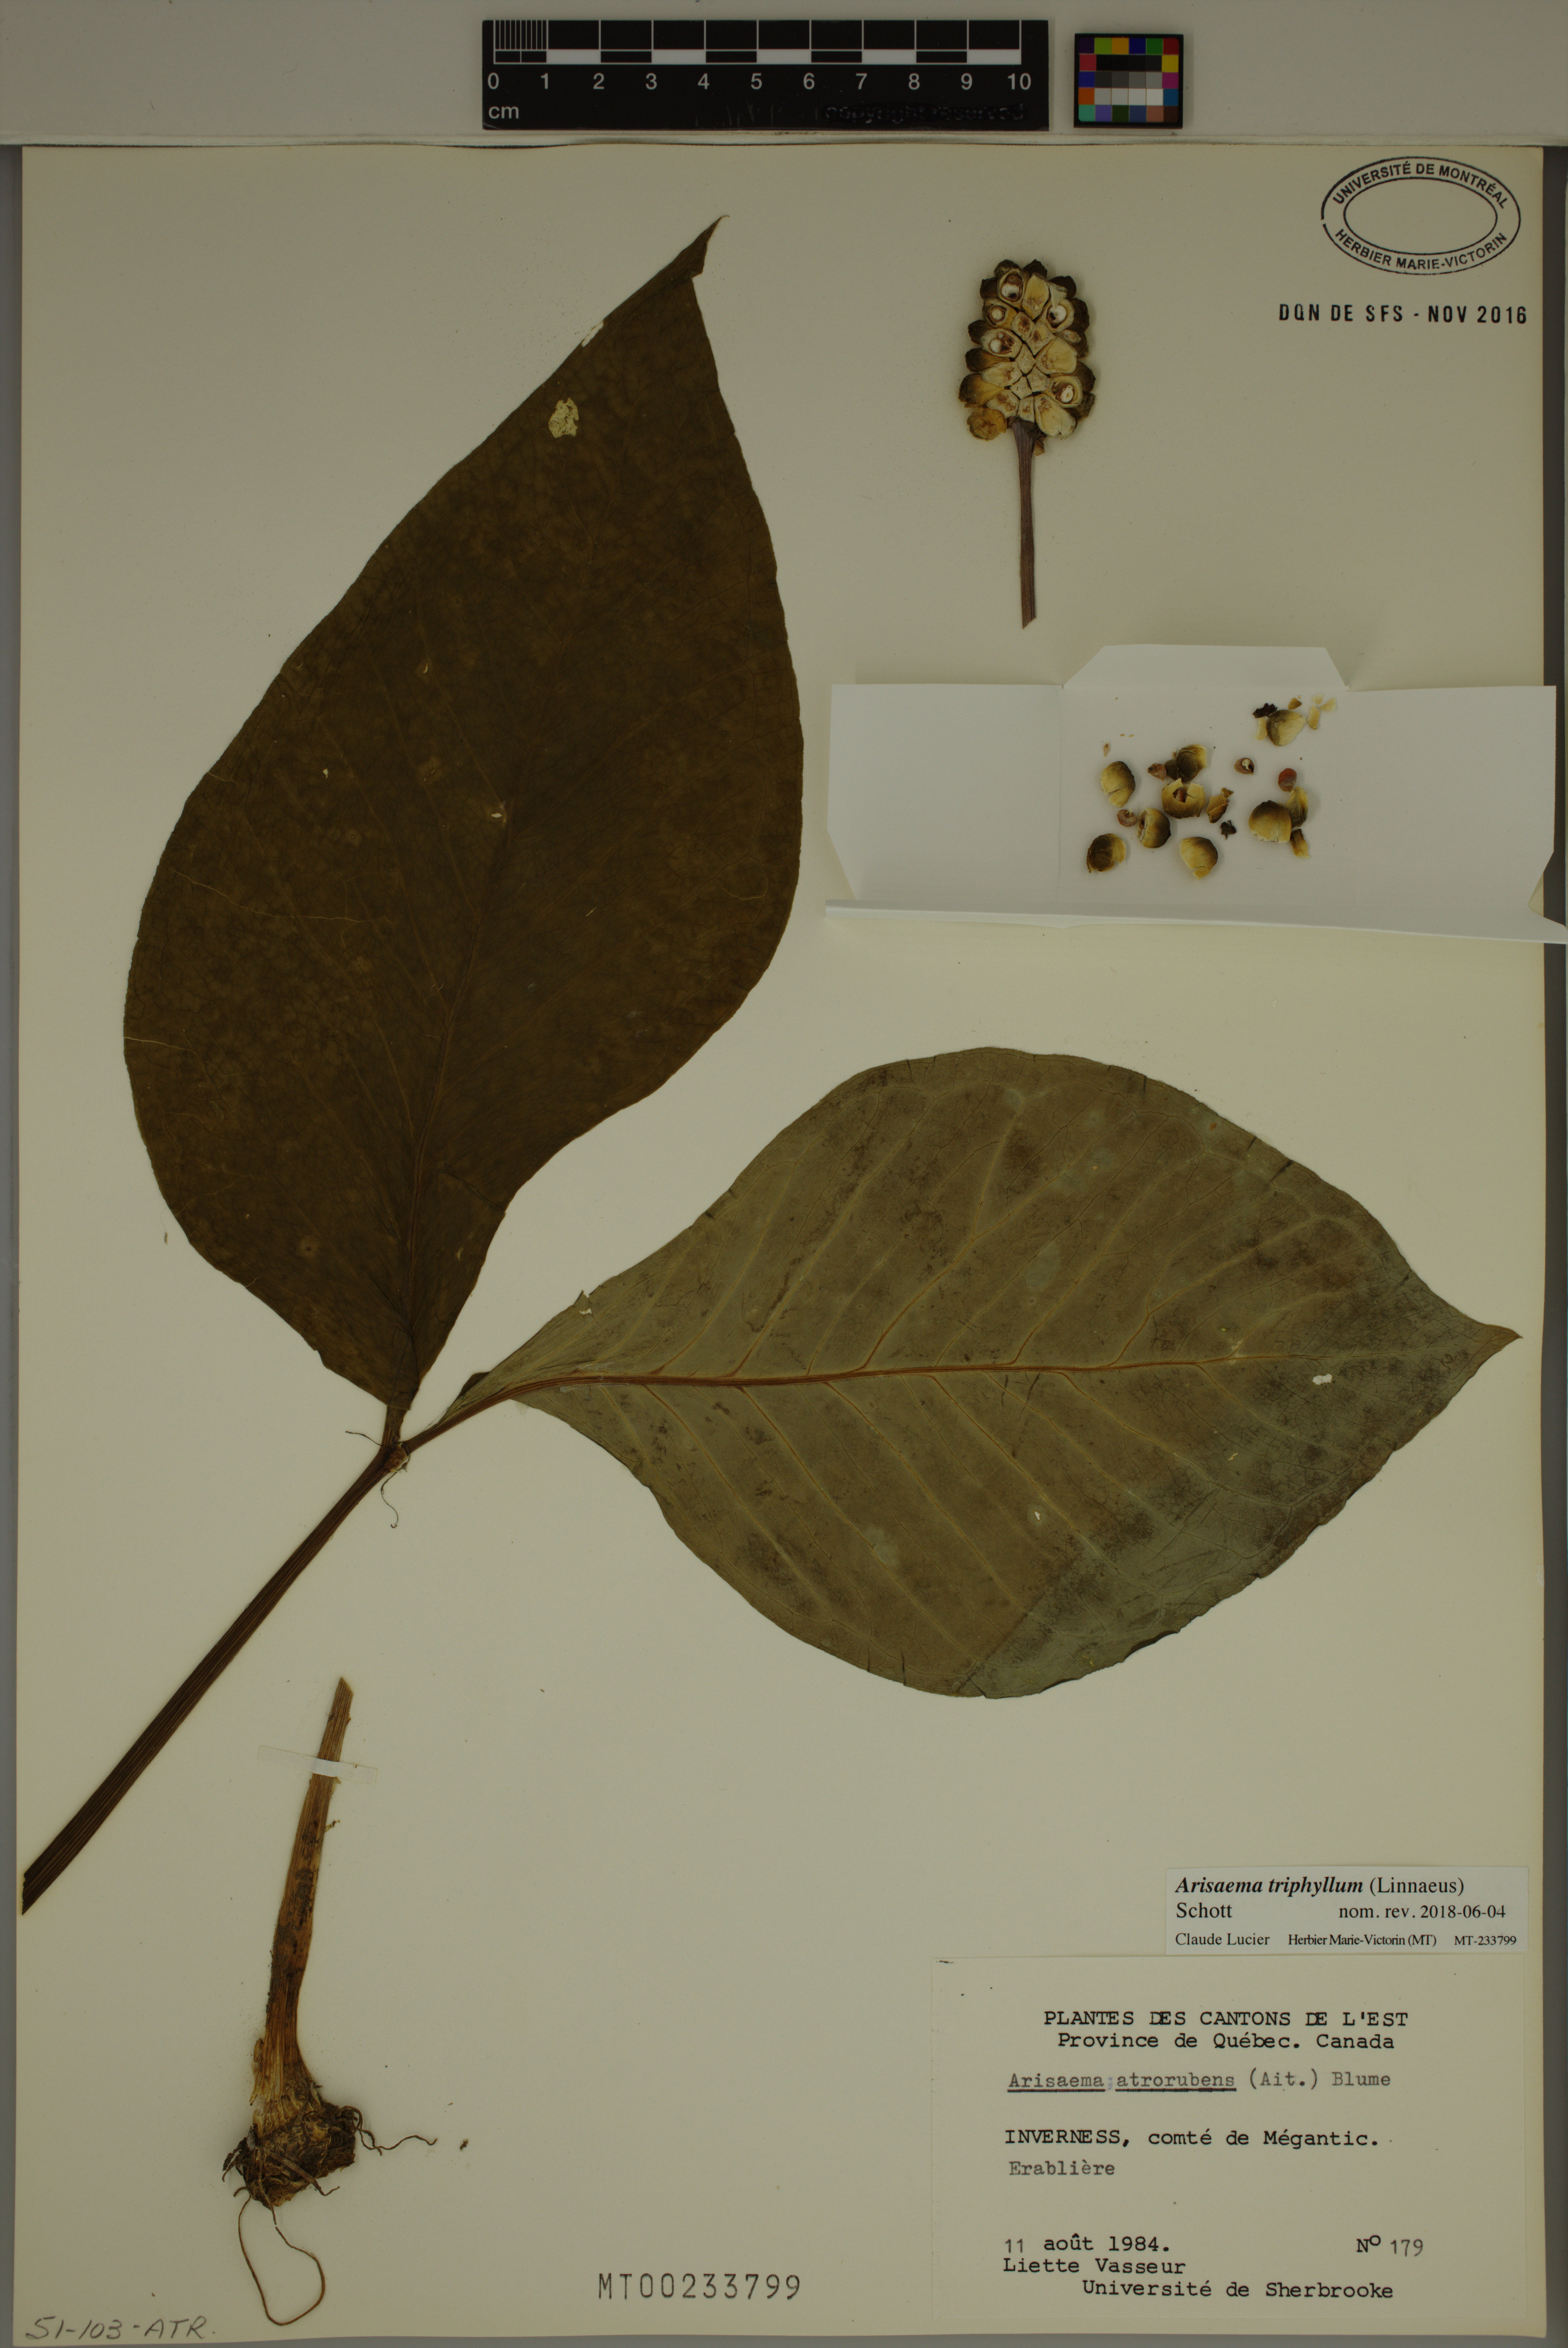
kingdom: Plantae
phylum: Tracheophyta
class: Liliopsida
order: Alismatales
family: Araceae
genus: Arisaema
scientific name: Arisaema triphyllum
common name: Jack-in-the-pulpit
